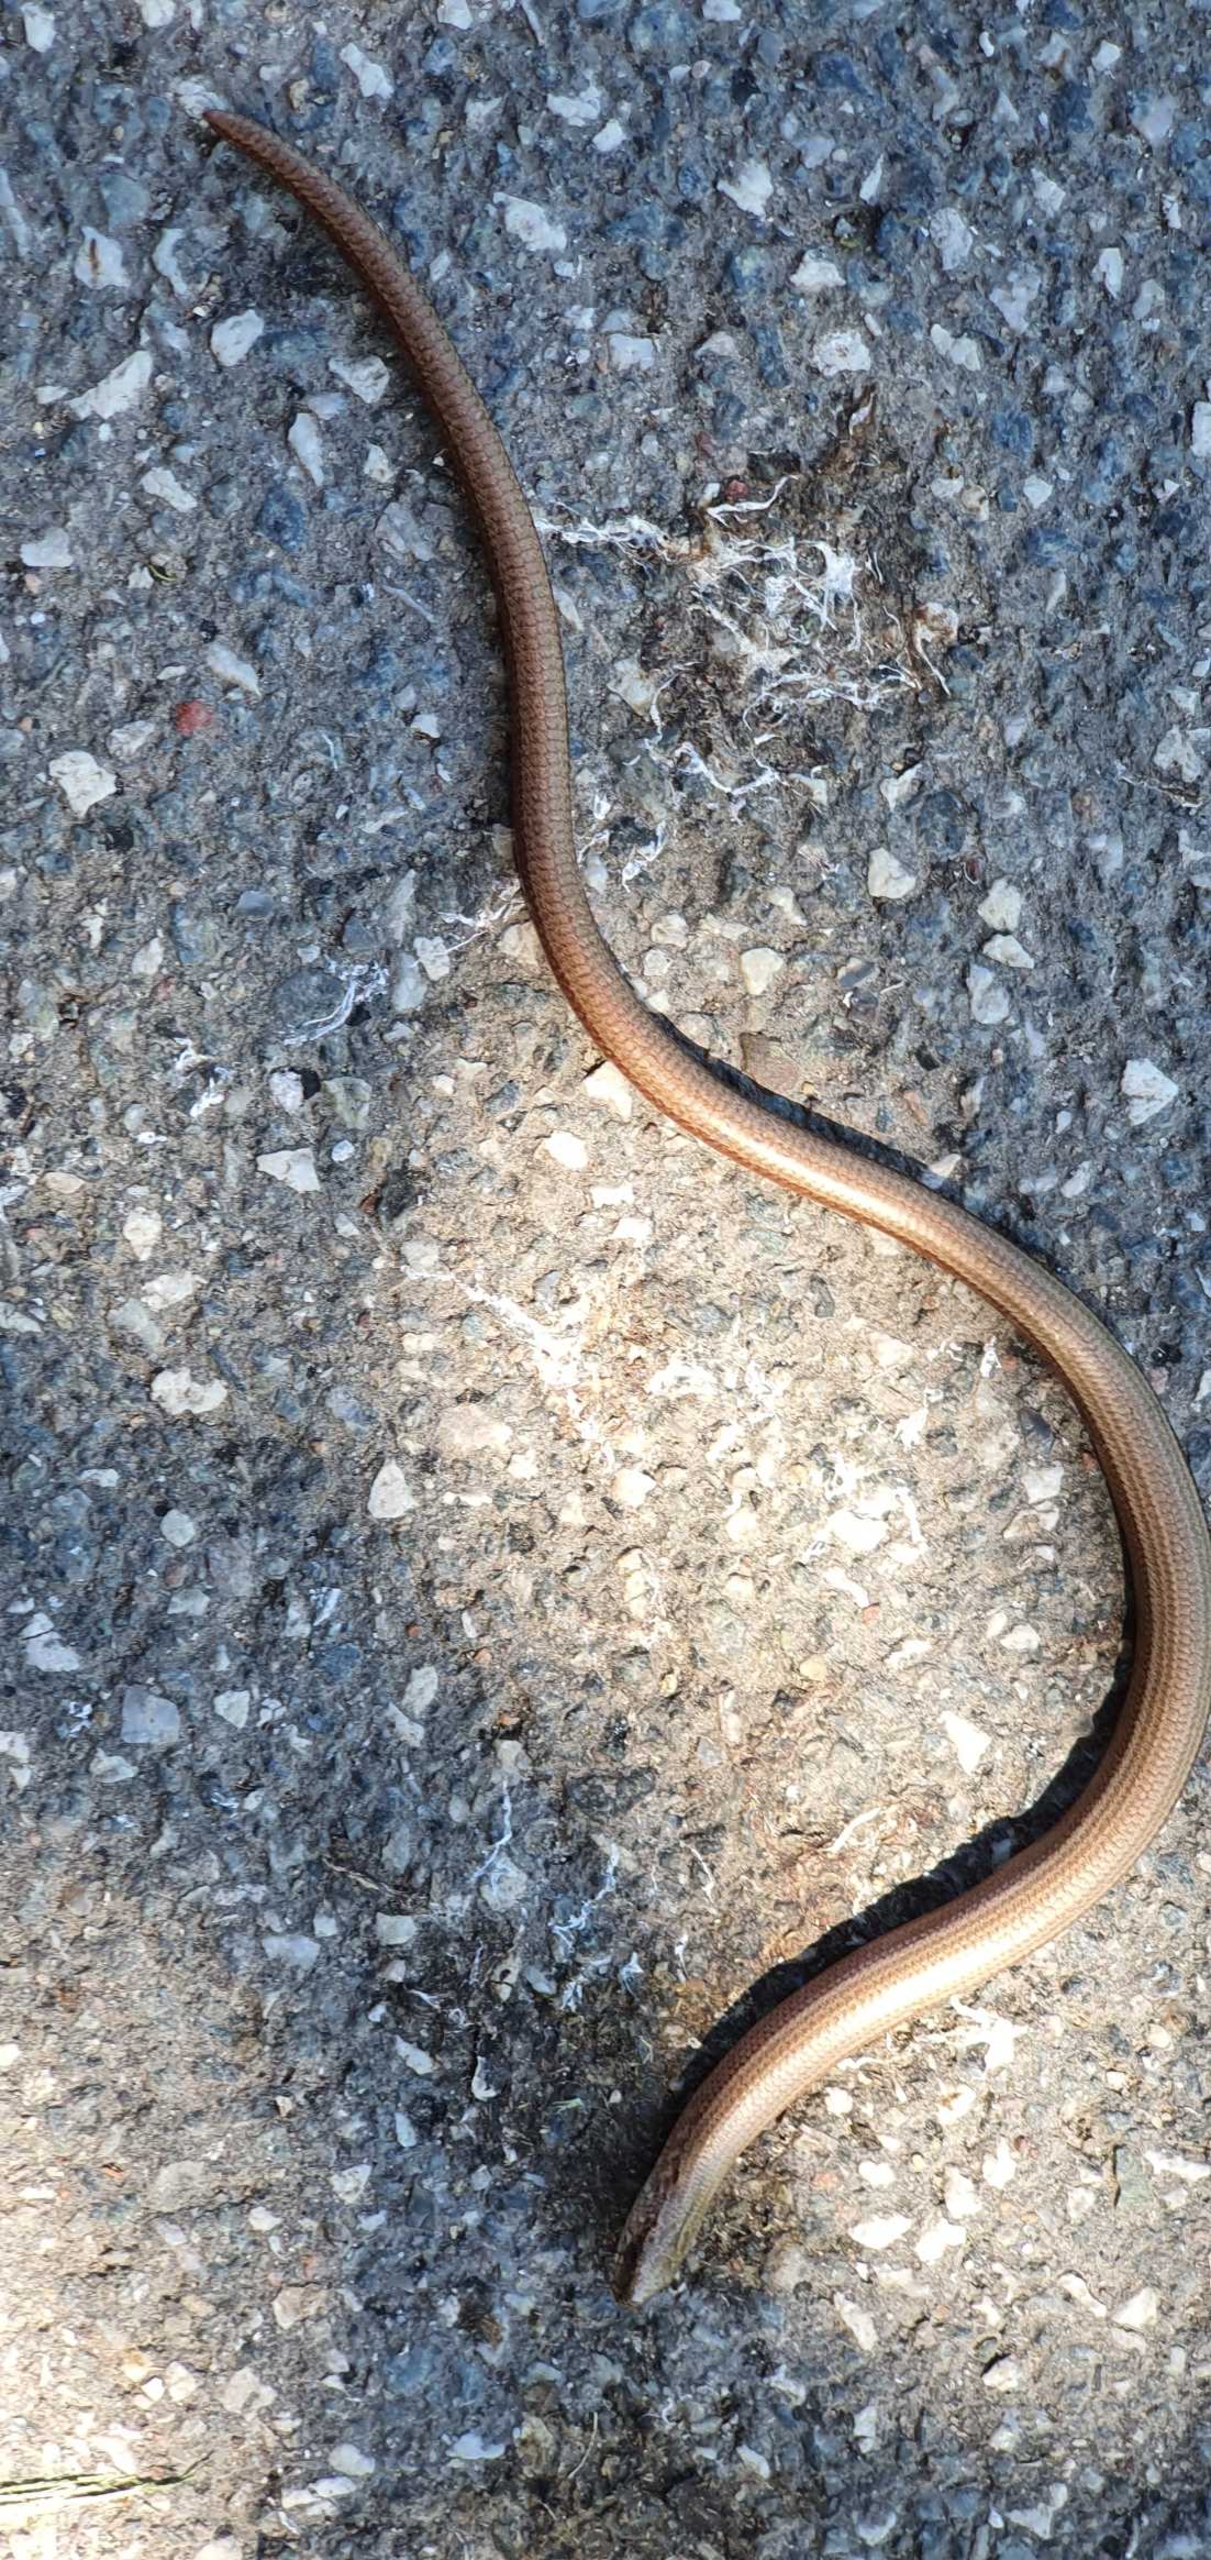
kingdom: Animalia
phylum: Chordata
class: Squamata
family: Anguidae
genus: Anguis
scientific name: Anguis fragilis
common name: Stålorm
